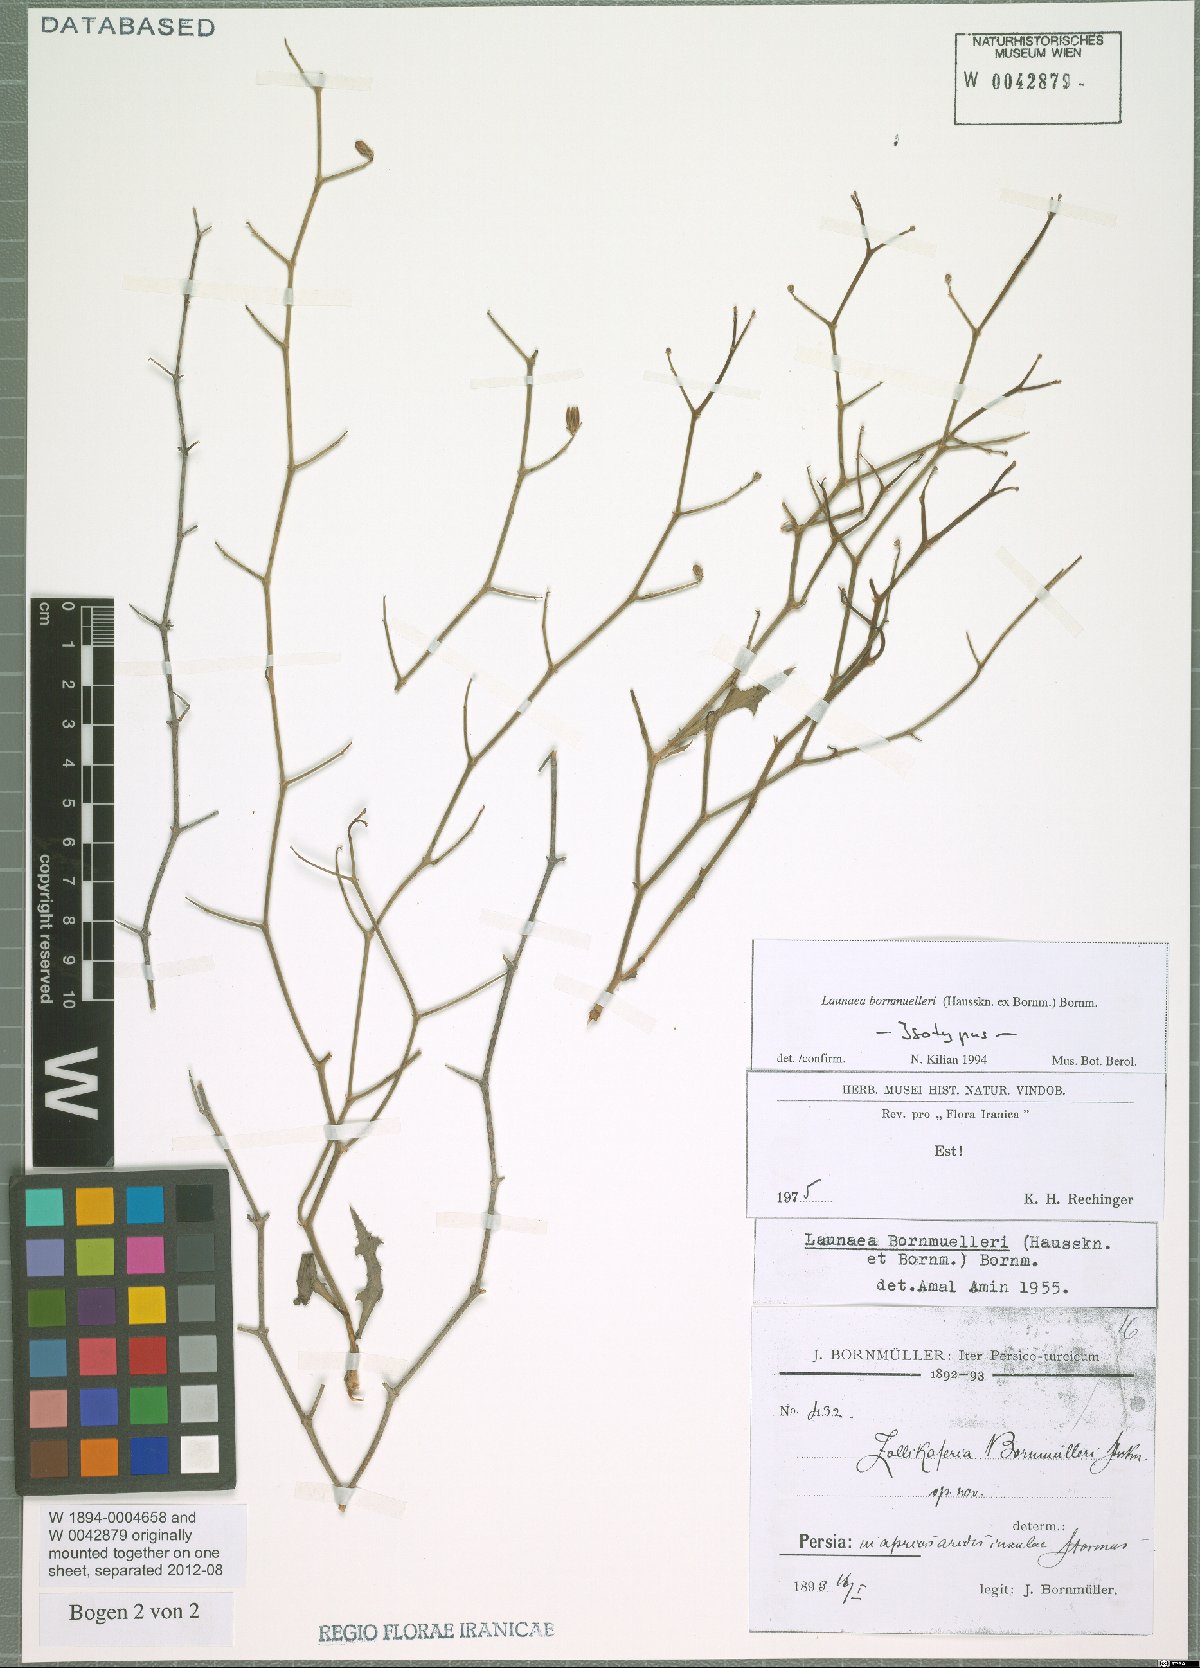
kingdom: Plantae
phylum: Tracheophyta
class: Magnoliopsida
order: Asterales
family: Asteraceae
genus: Launaea
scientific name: Launaea bornmuelleri
